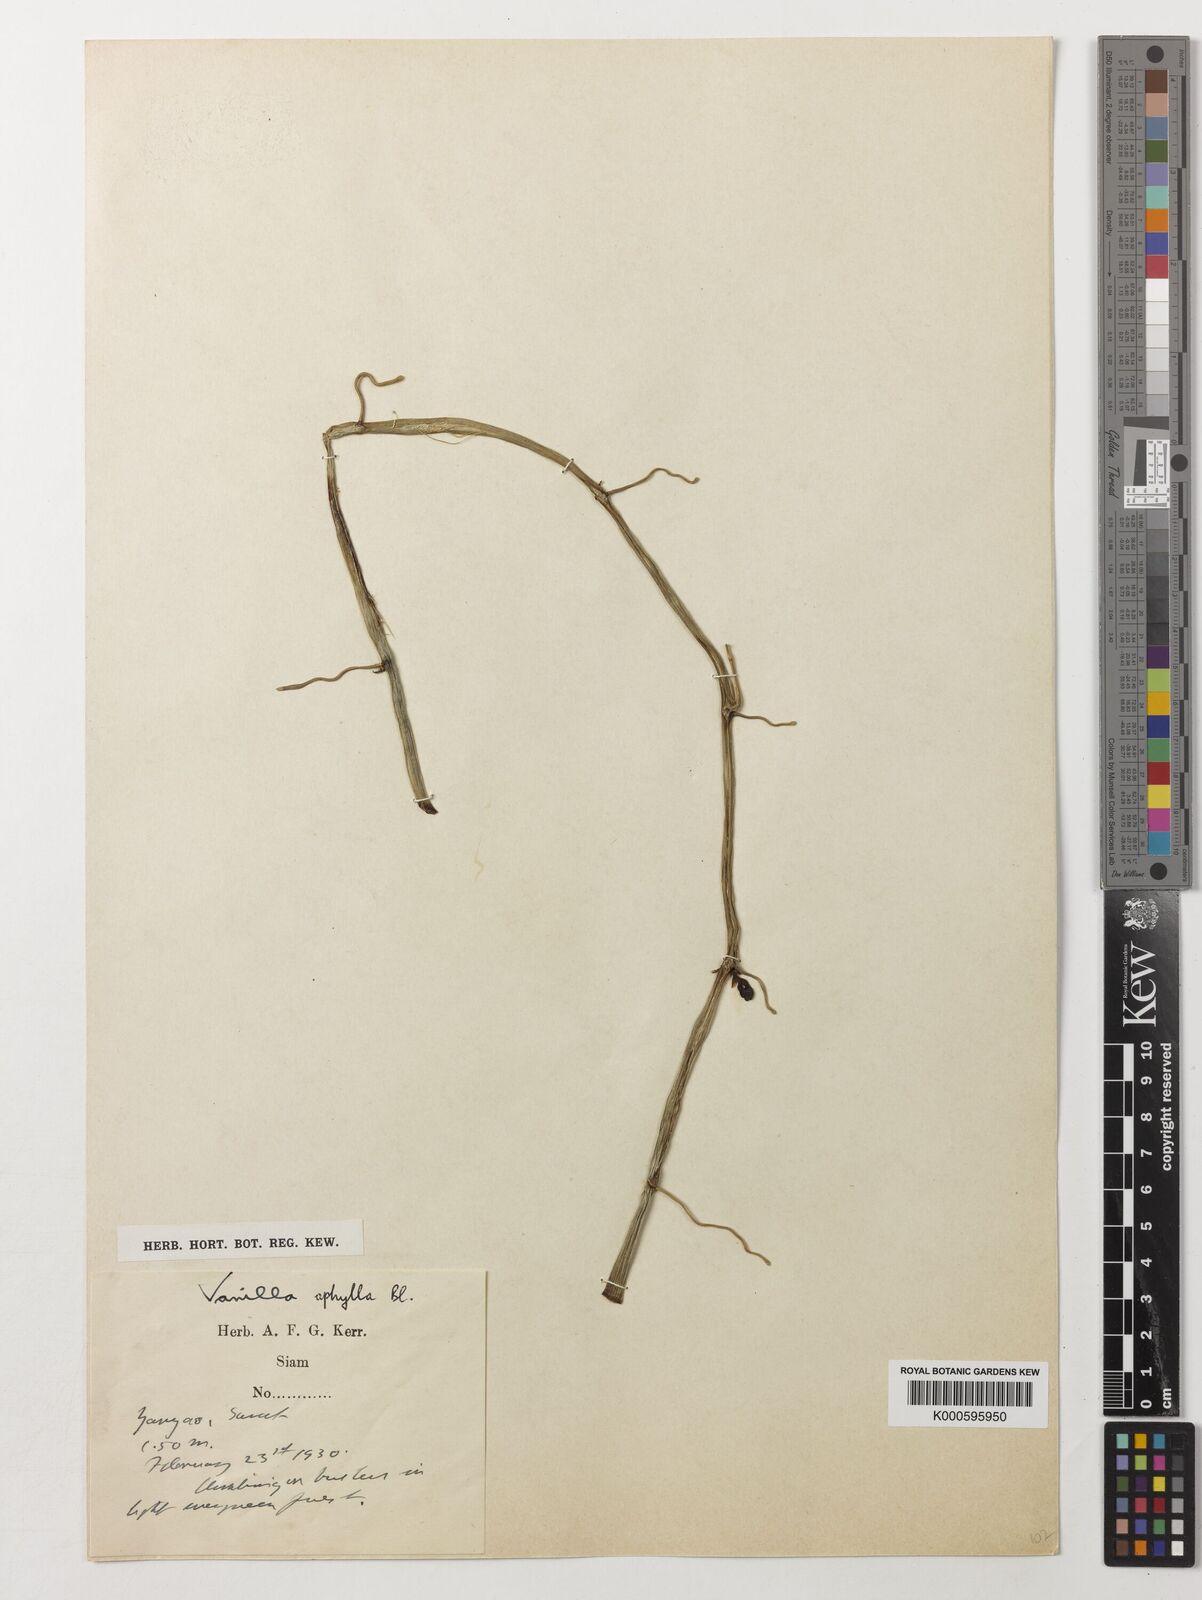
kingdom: Plantae
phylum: Tracheophyta
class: Liliopsida
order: Asparagales
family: Orchidaceae
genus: Vanilla
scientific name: Vanilla aphylla
